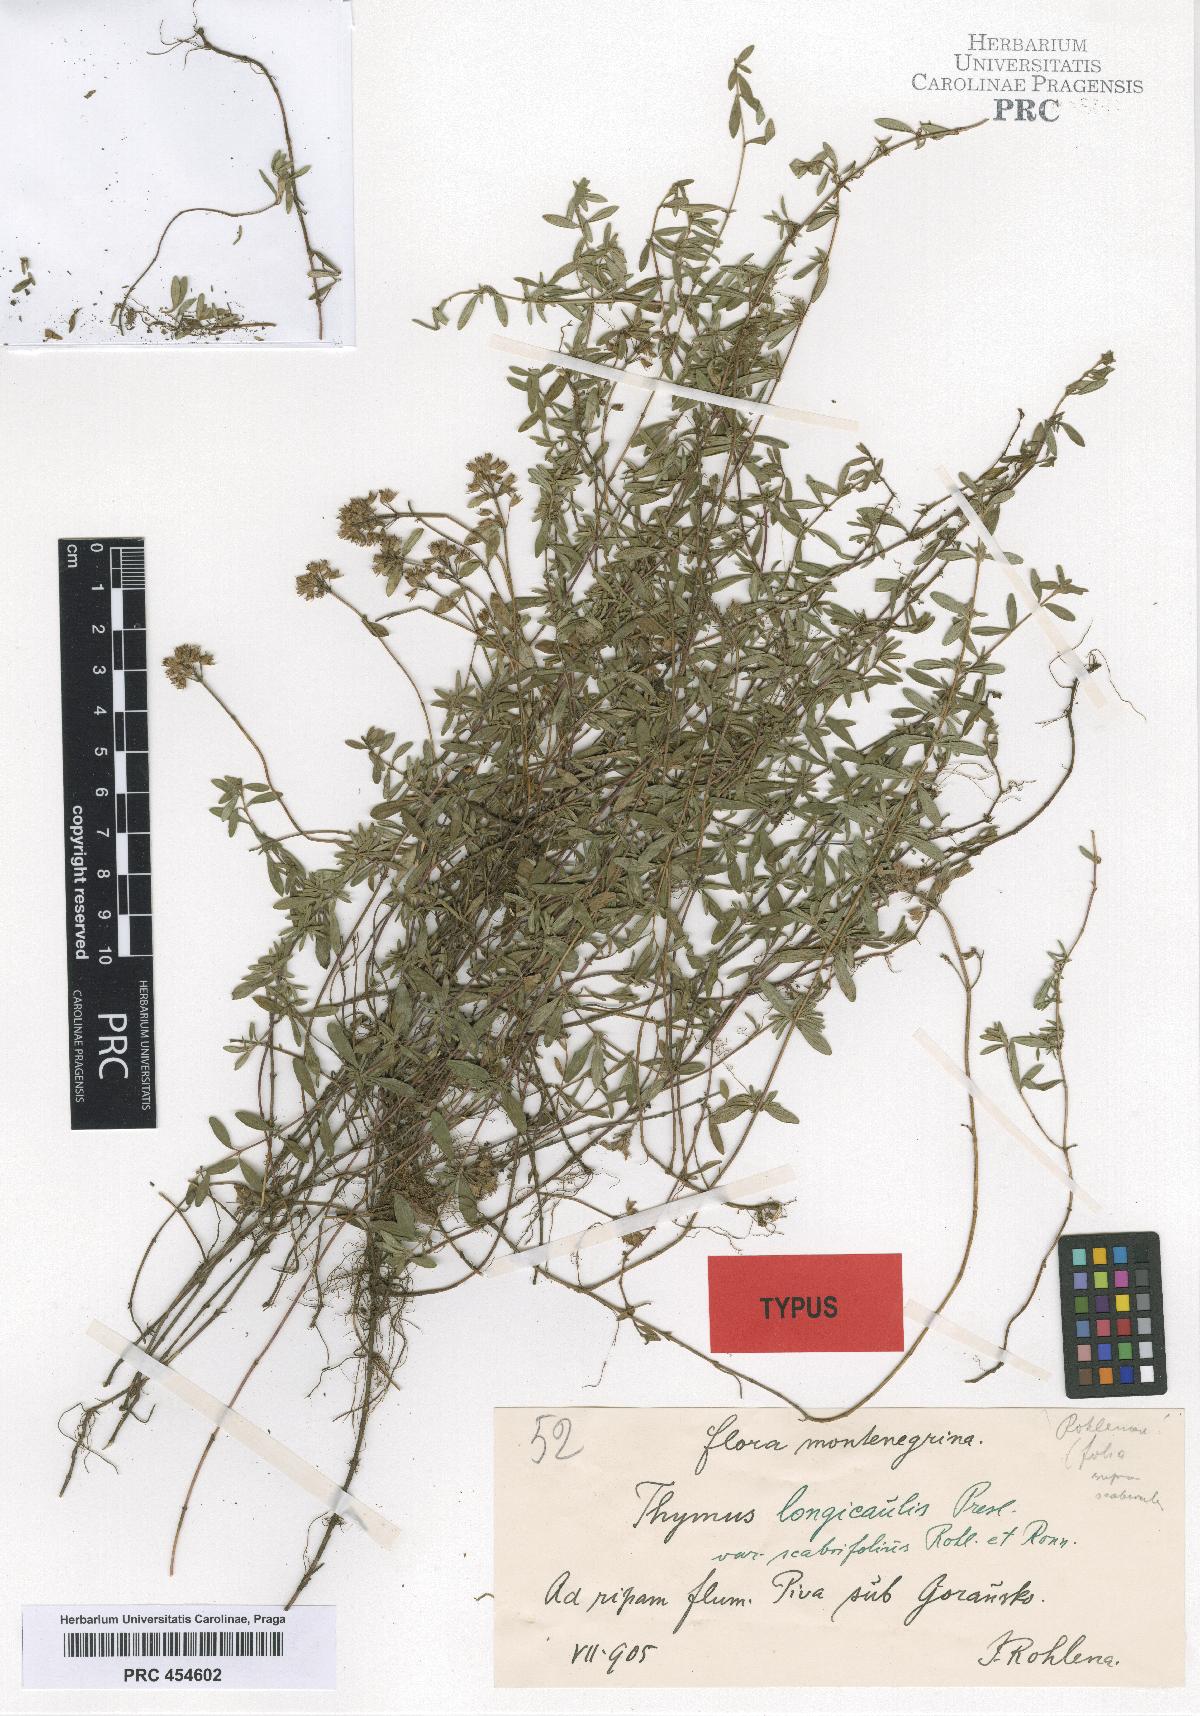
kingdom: Plantae
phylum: Tracheophyta
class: Magnoliopsida
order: Lamiales
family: Lamiaceae
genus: Thymus
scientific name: Thymus longicaulis
